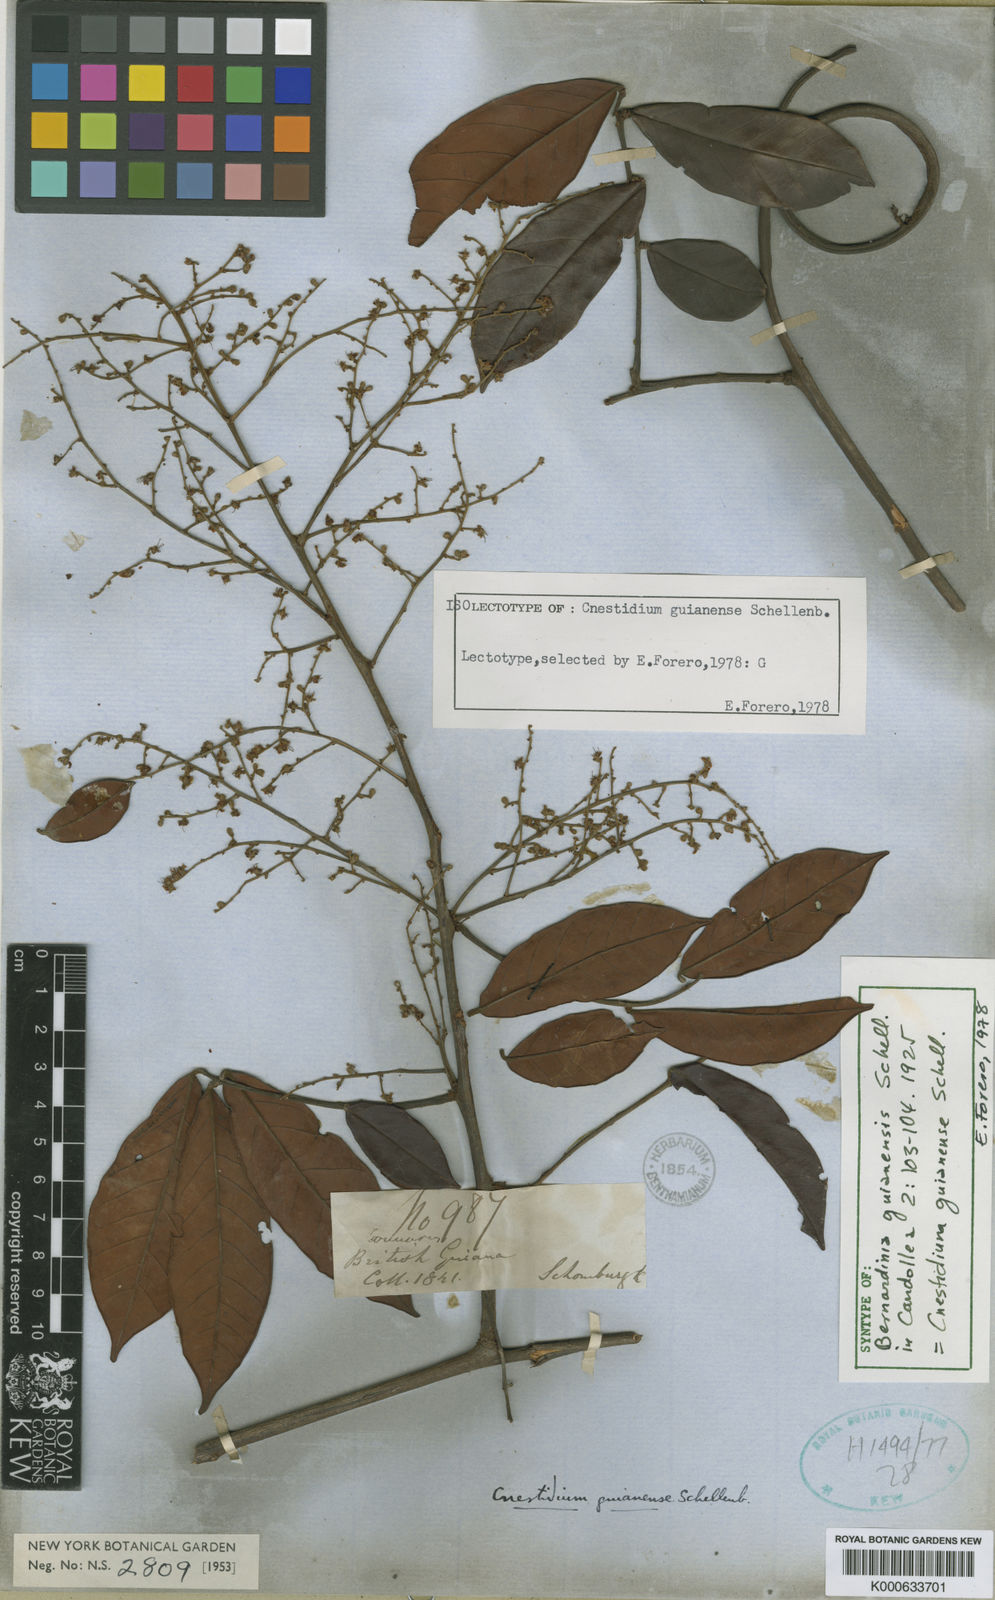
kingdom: Plantae
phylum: Tracheophyta
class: Magnoliopsida
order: Oxalidales
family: Connaraceae
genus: Cnestidium
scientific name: Cnestidium guianense
